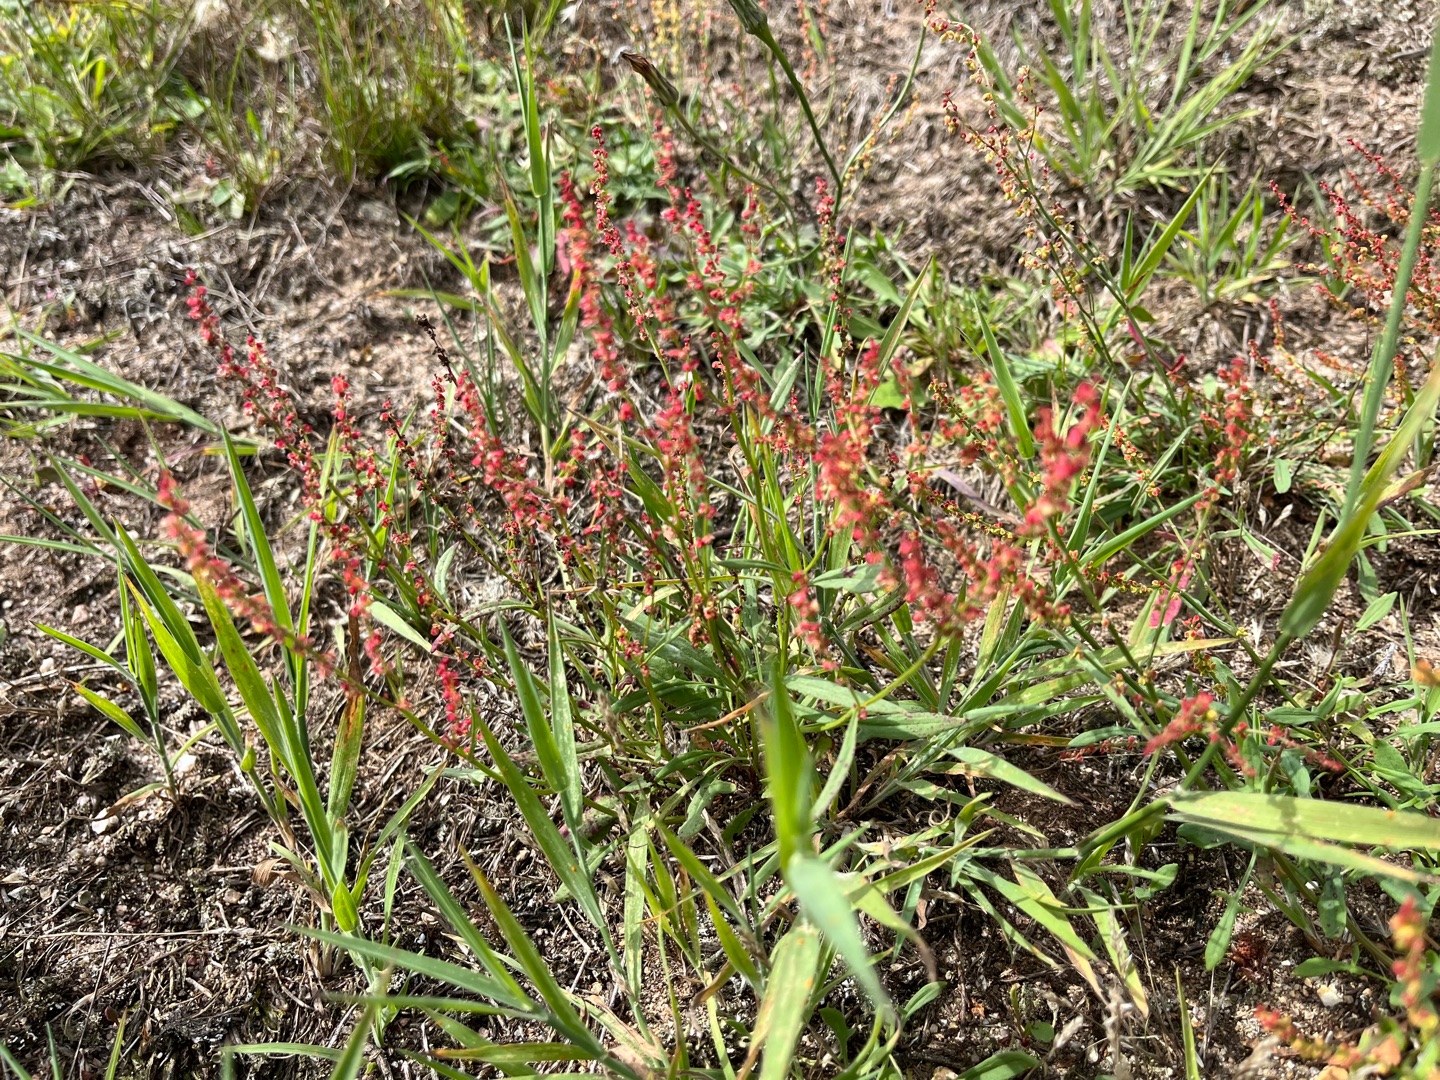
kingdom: Plantae
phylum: Tracheophyta
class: Magnoliopsida
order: Caryophyllales
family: Polygonaceae
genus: Rumex
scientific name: Rumex acetosella
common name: Rødknæ
